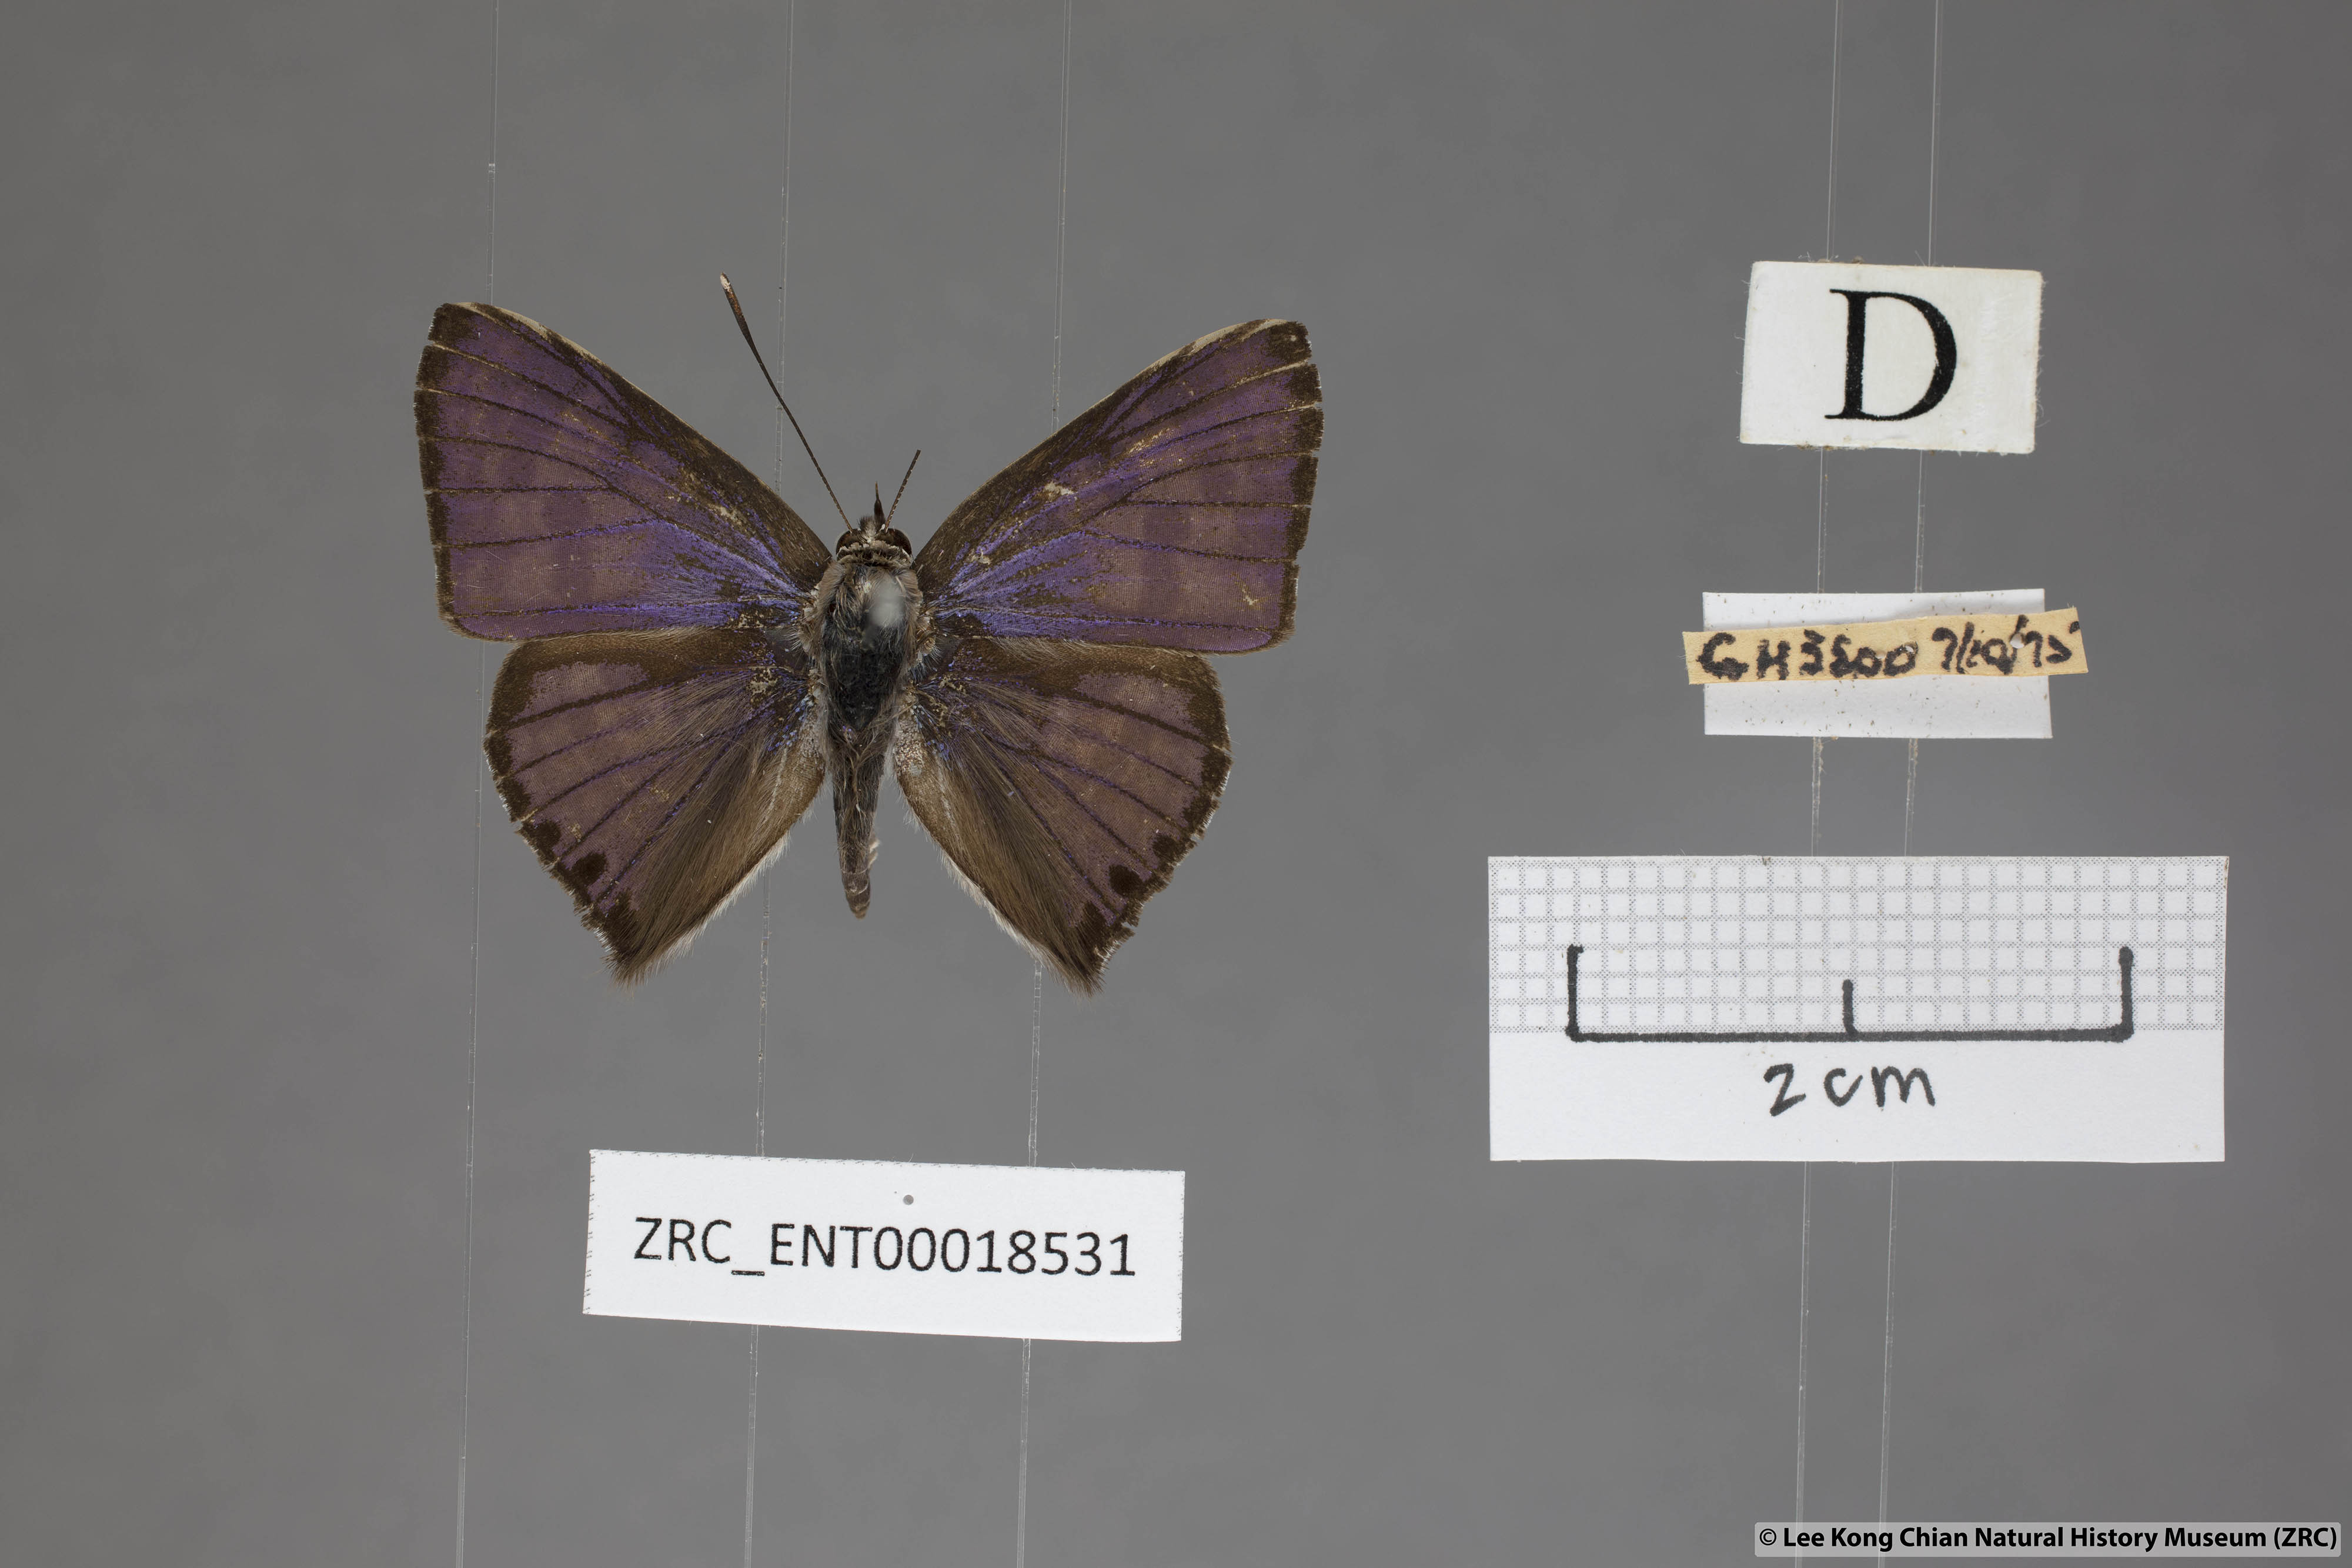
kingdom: Animalia
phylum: Arthropoda
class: Insecta
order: Lepidoptera
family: Lycaenidae
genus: Niphanda
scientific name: Niphanda tessellata
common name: Large pointed pierrot
